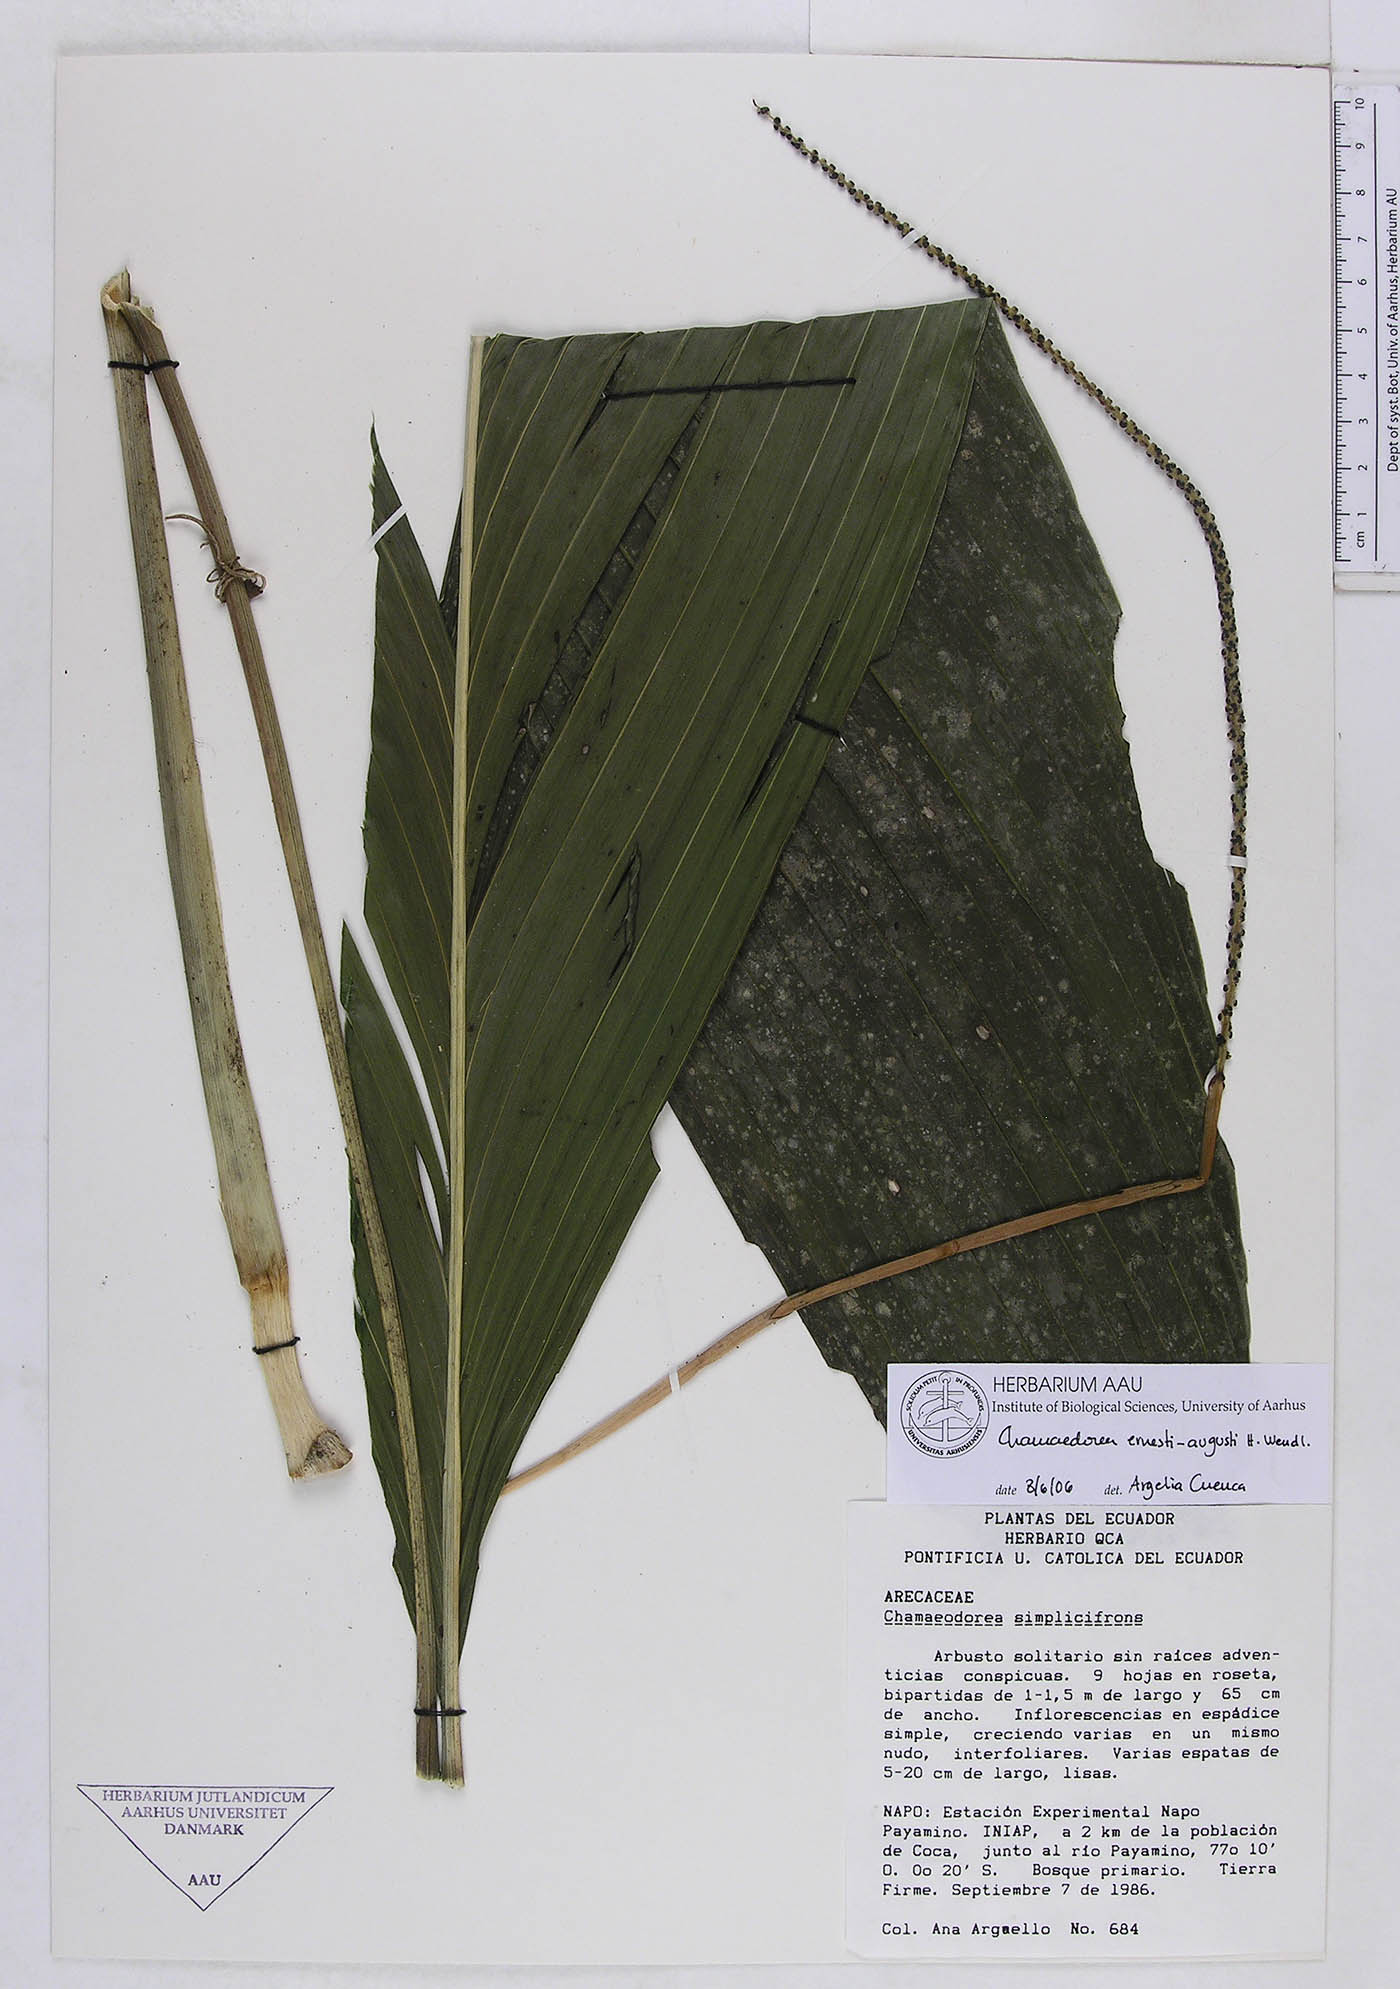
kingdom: Plantae
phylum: Tracheophyta
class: Liliopsida
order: Arecales
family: Arecaceae
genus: Chamaedorea
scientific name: Chamaedorea ernesti-augusti
